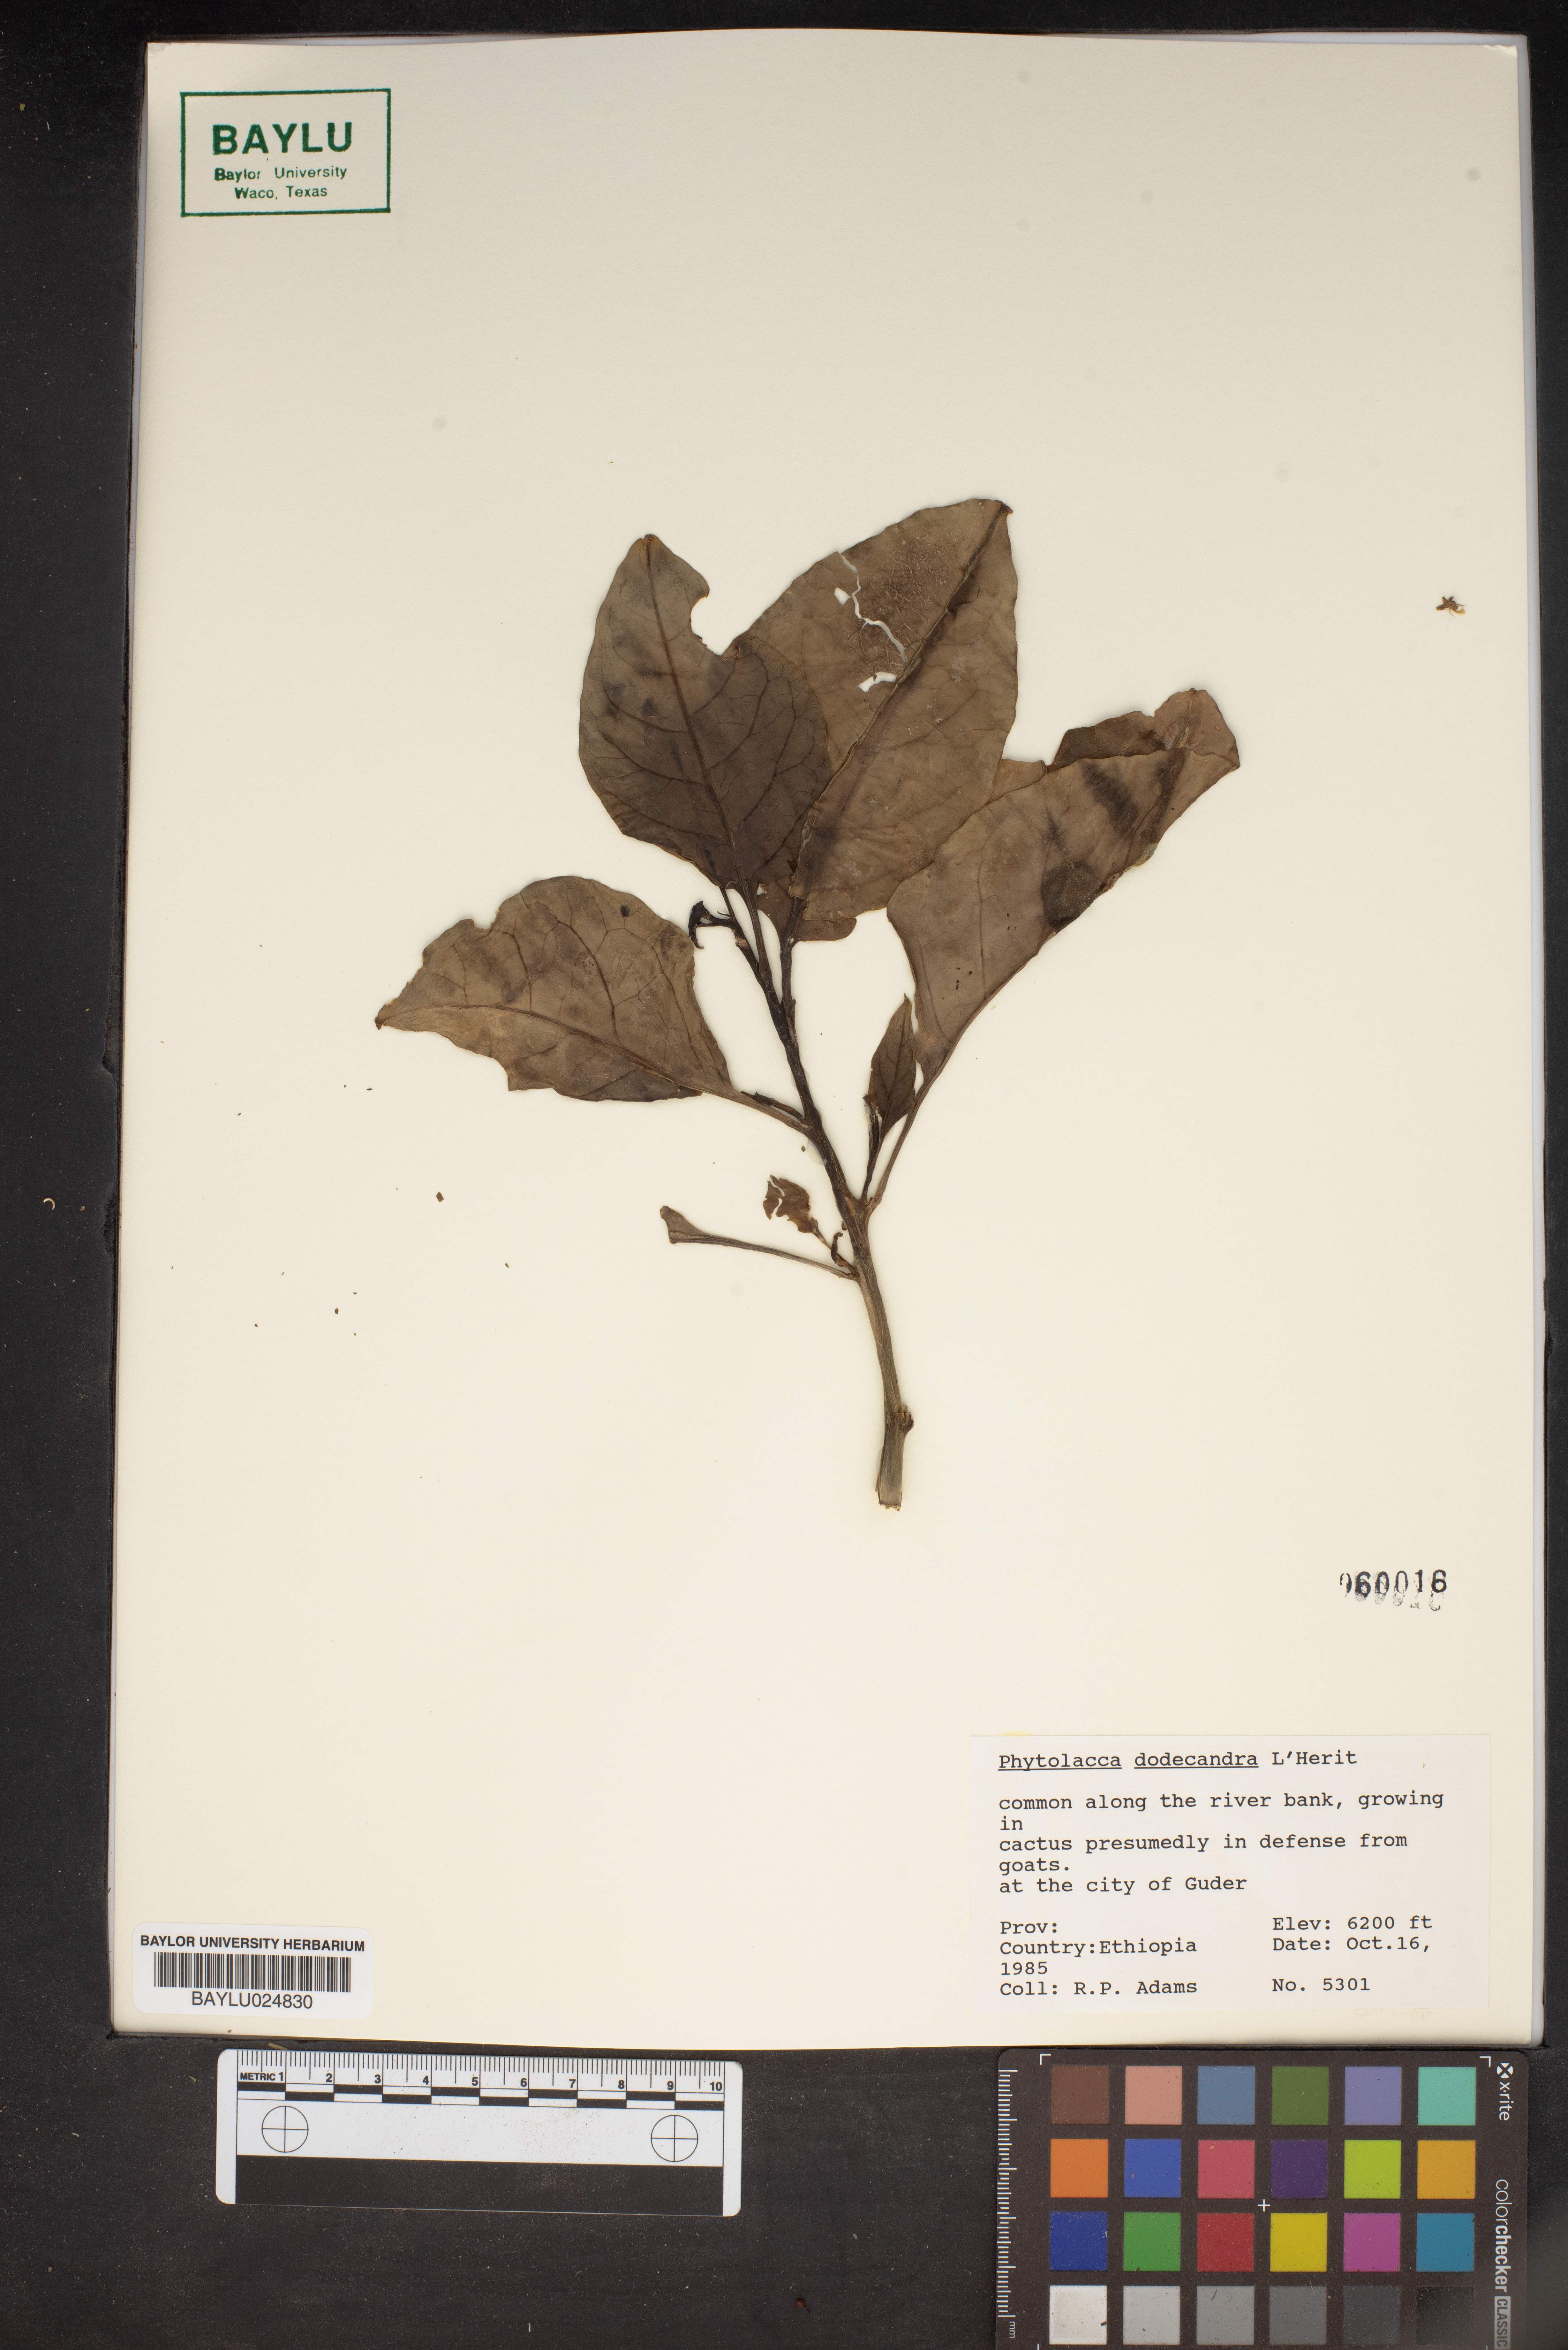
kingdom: Plantae
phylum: Tracheophyta
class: Magnoliopsida
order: Caryophyllales
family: Phytolaccaceae
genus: Phytolacca
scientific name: Phytolacca dodecandra
